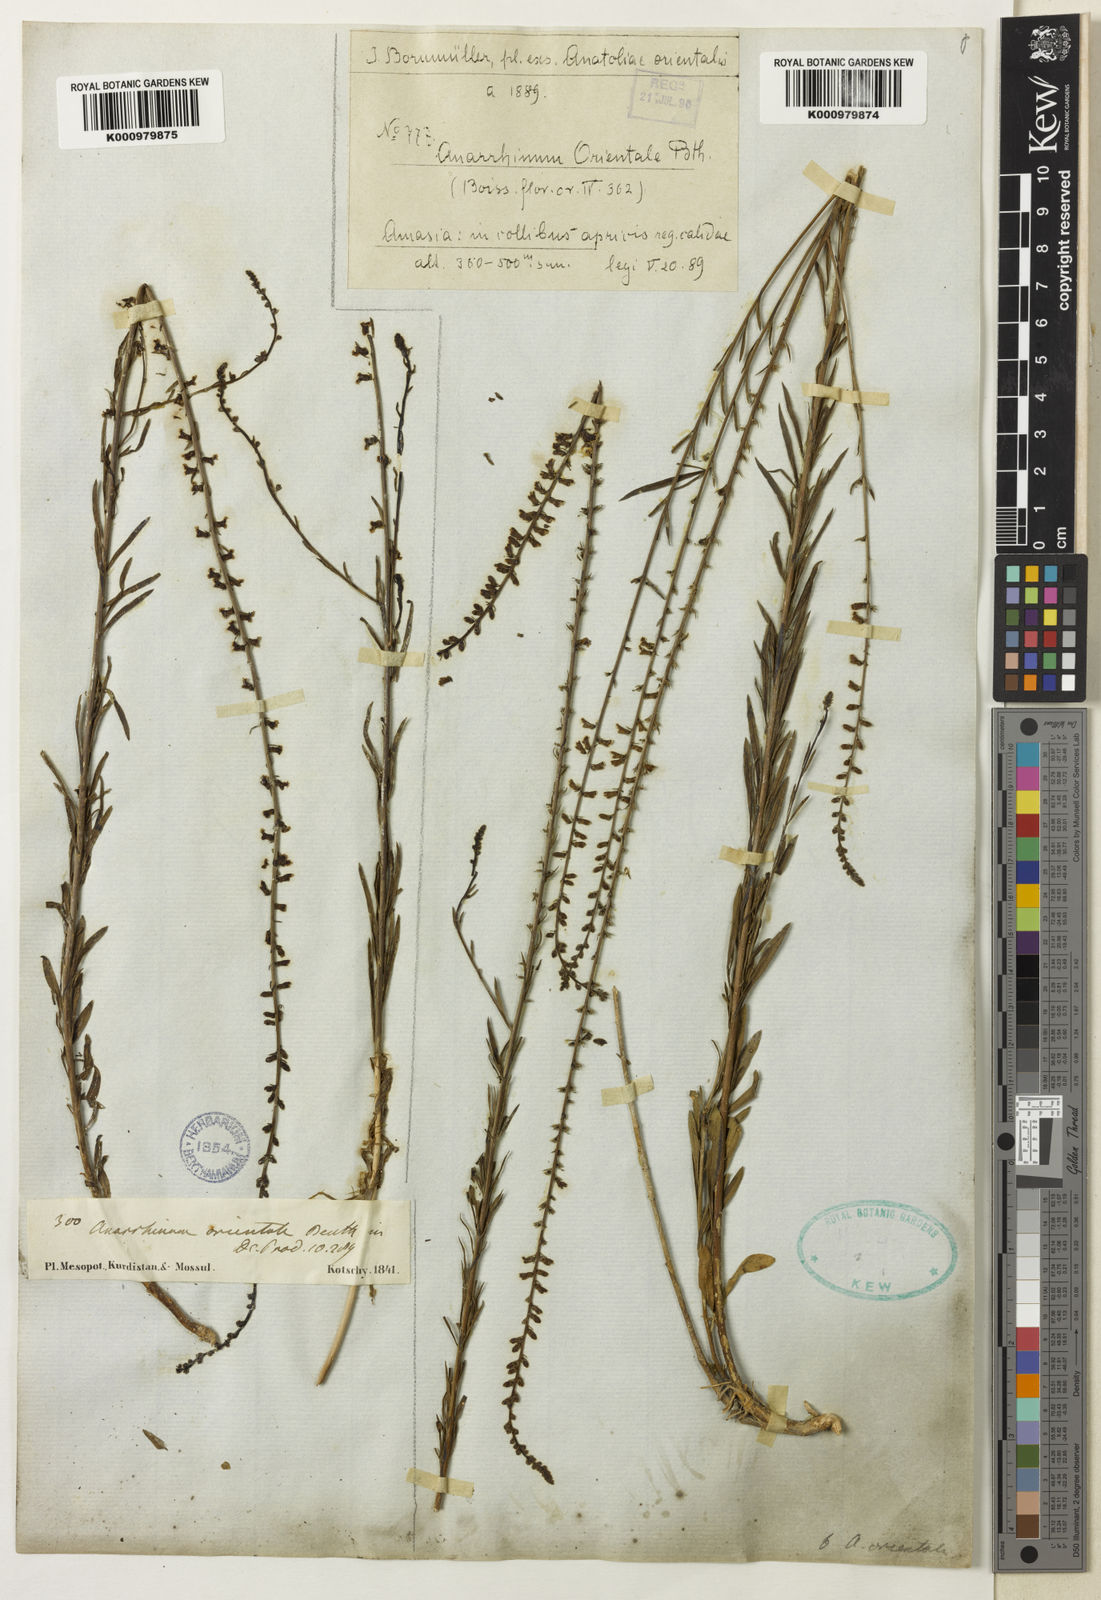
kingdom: Plantae
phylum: Tracheophyta
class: Magnoliopsida
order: Lamiales
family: Plantaginaceae
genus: Anarrhinum
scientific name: Anarrhinum forskaohlii
